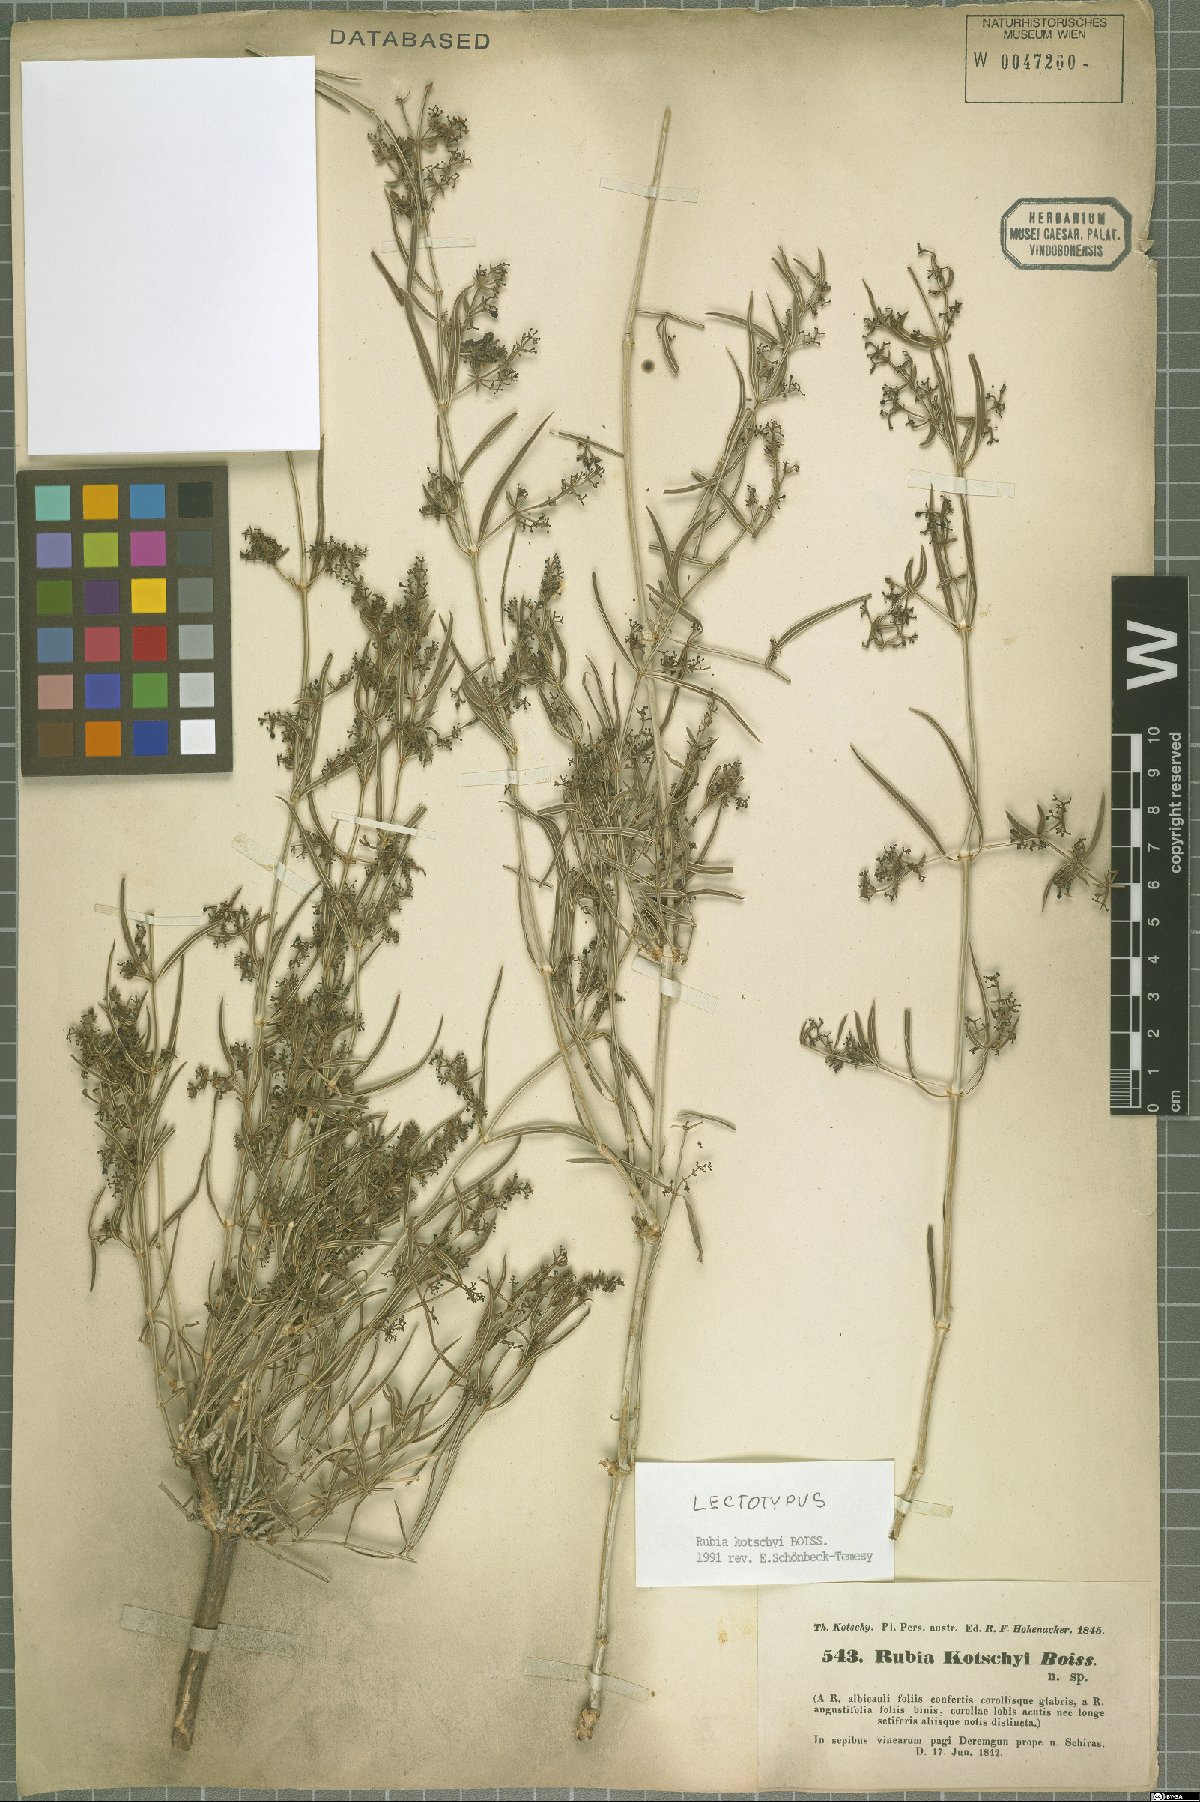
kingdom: Plantae
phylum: Tracheophyta
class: Magnoliopsida
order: Gentianales
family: Rubiaceae
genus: Rubia
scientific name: Rubia albicaulis
